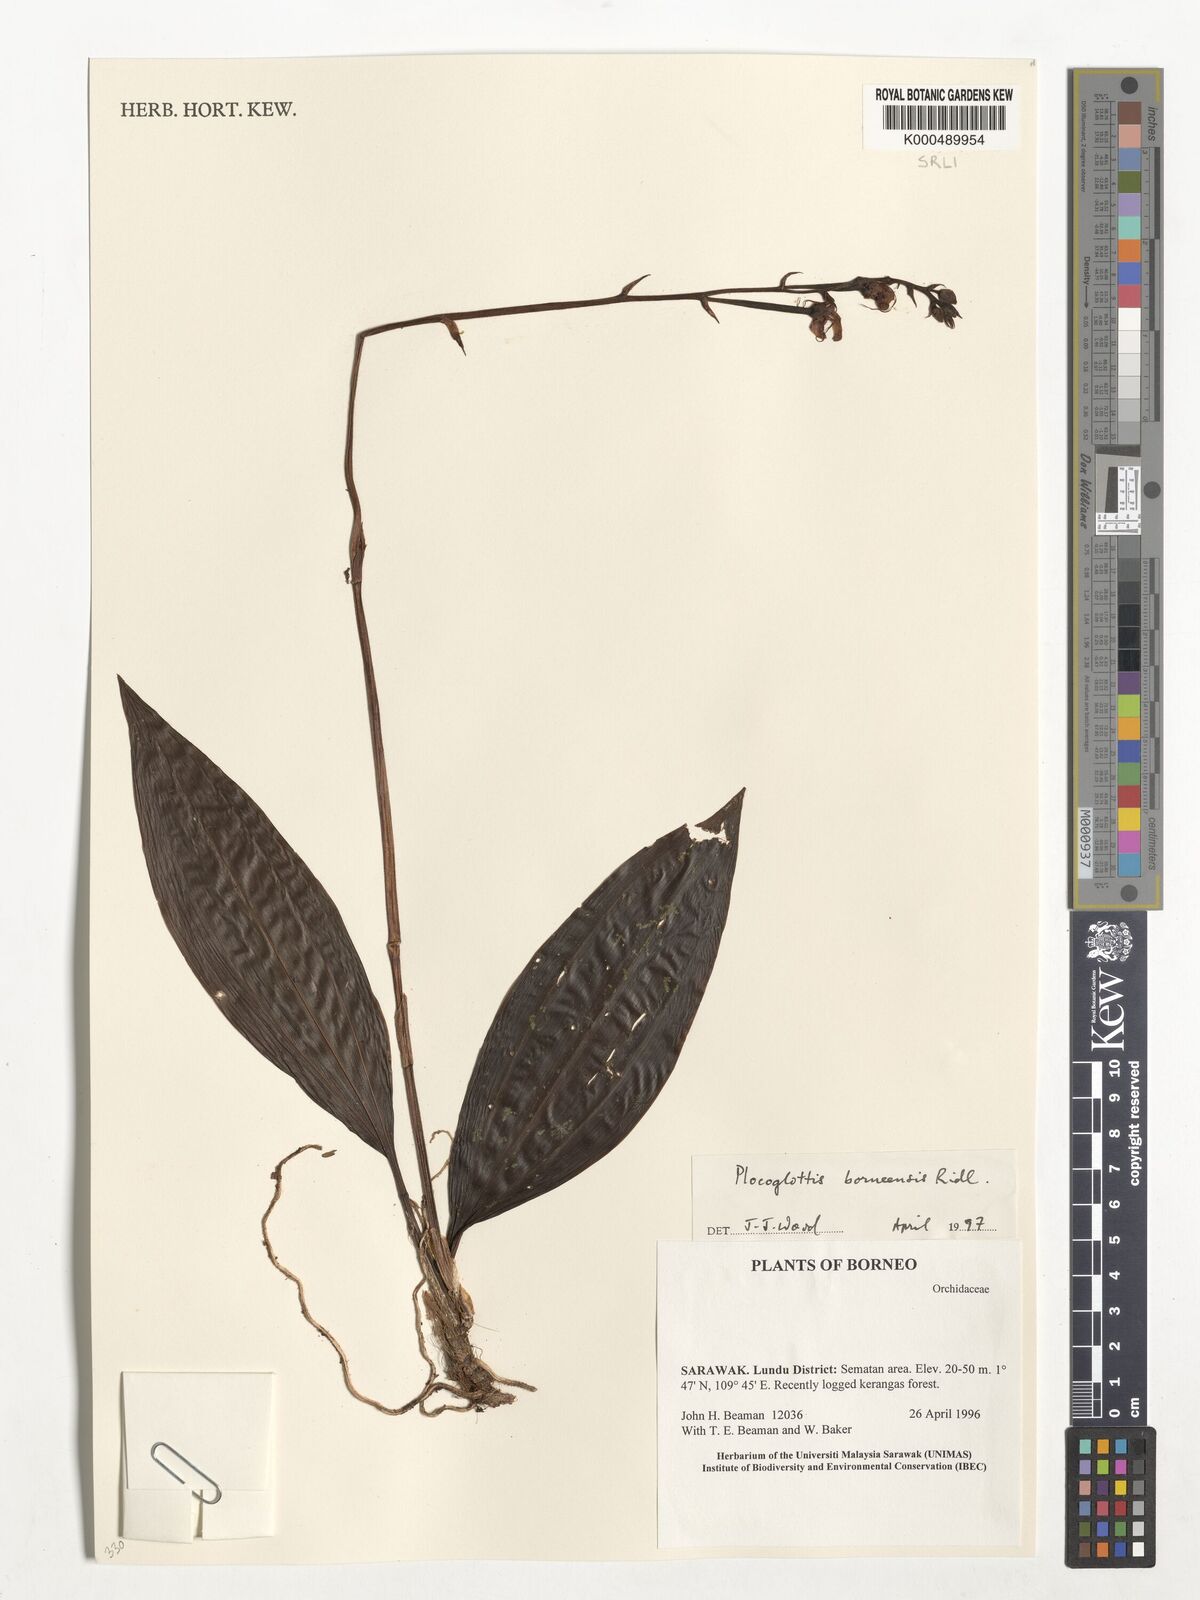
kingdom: Plantae
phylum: Tracheophyta
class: Liliopsida
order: Asparagales
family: Orchidaceae
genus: Plocoglottis
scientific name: Plocoglottis borneensis
